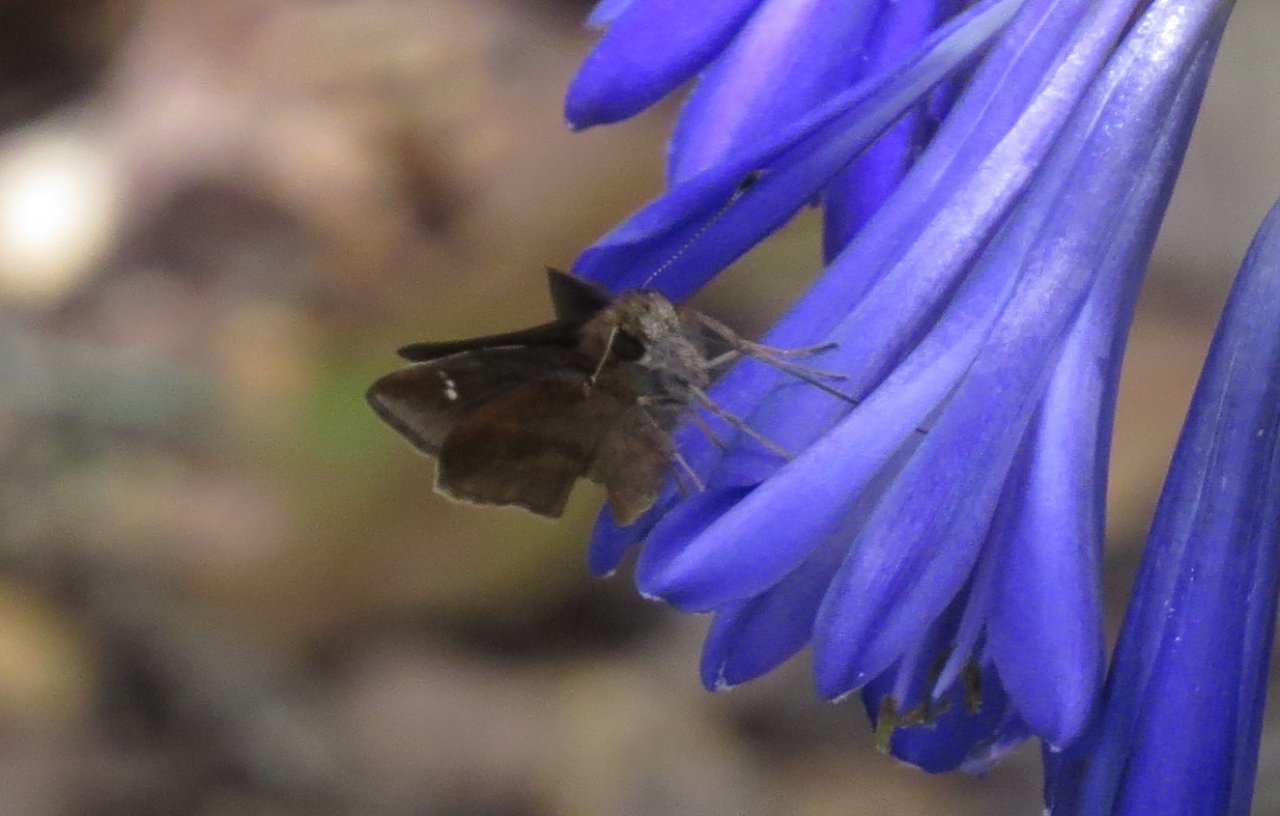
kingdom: Animalia
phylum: Arthropoda
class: Insecta
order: Lepidoptera
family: Hesperiidae
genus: Lerema
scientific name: Lerema accius
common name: Clouded Skipper
